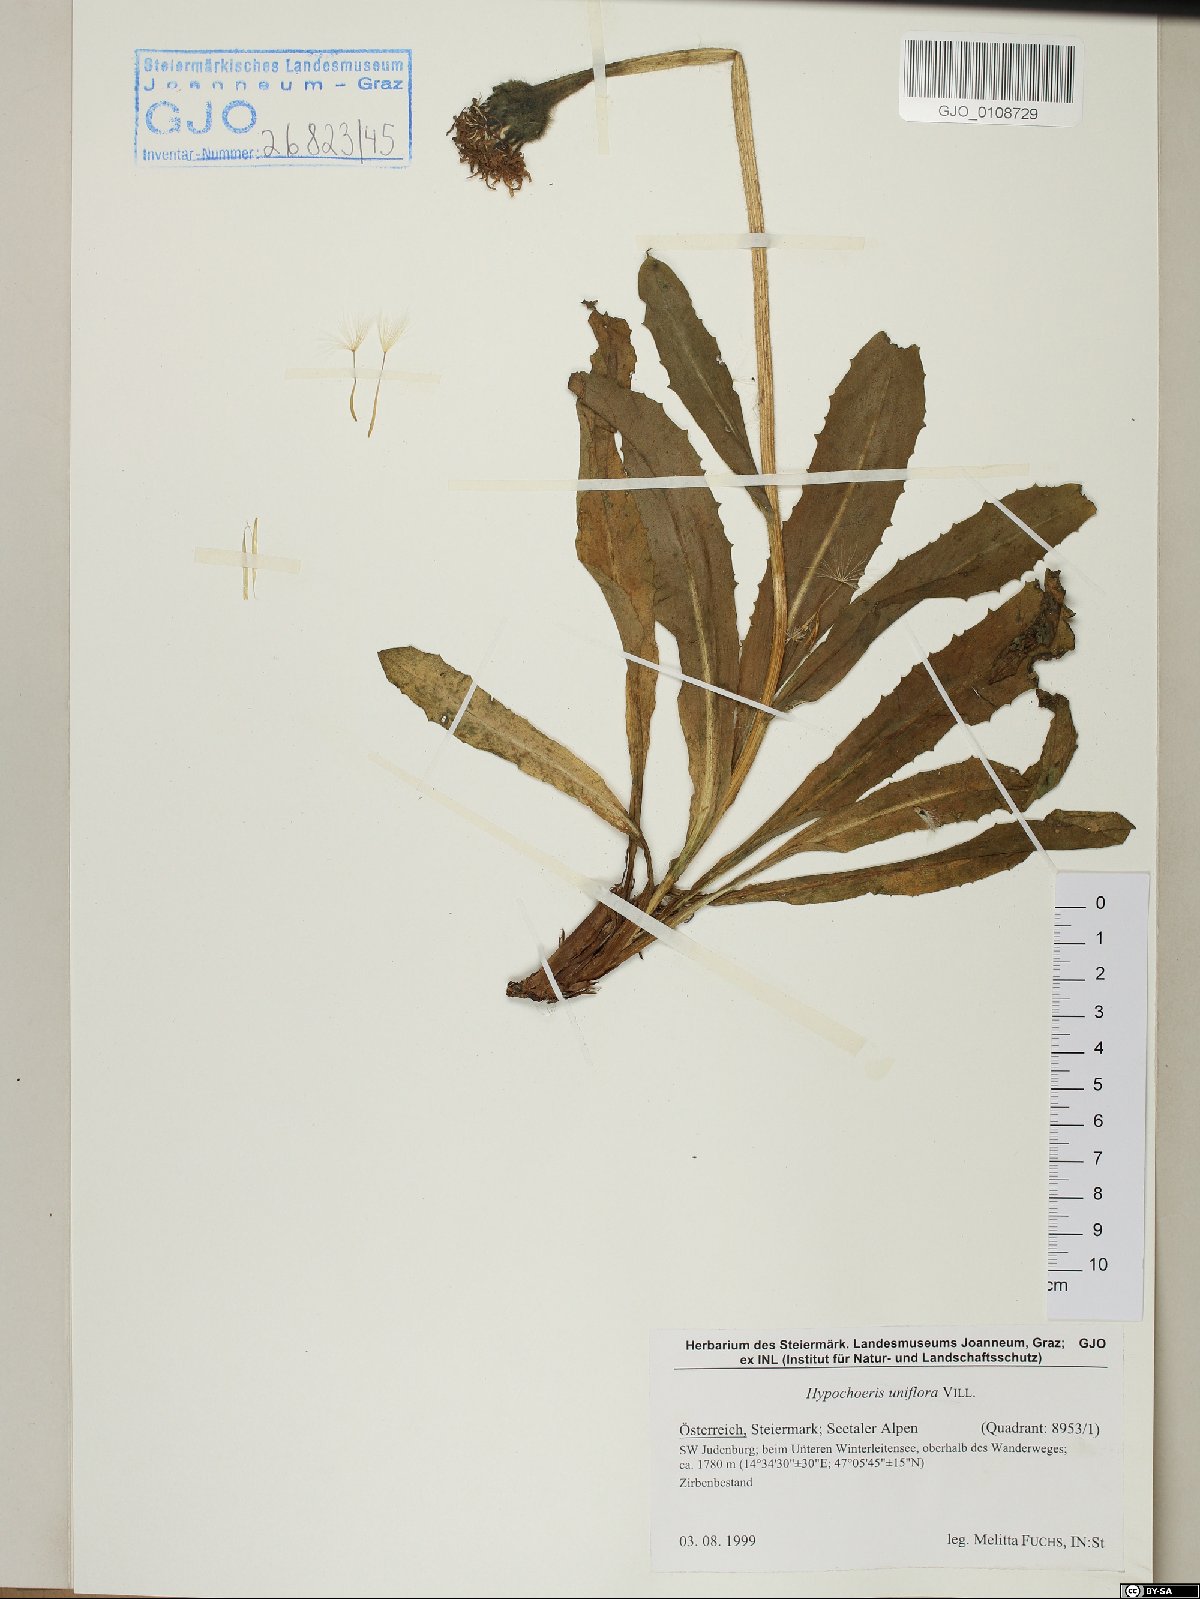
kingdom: Plantae
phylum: Tracheophyta
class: Magnoliopsida
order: Asterales
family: Asteraceae
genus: Trommsdorffia
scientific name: Trommsdorffia uniflora
